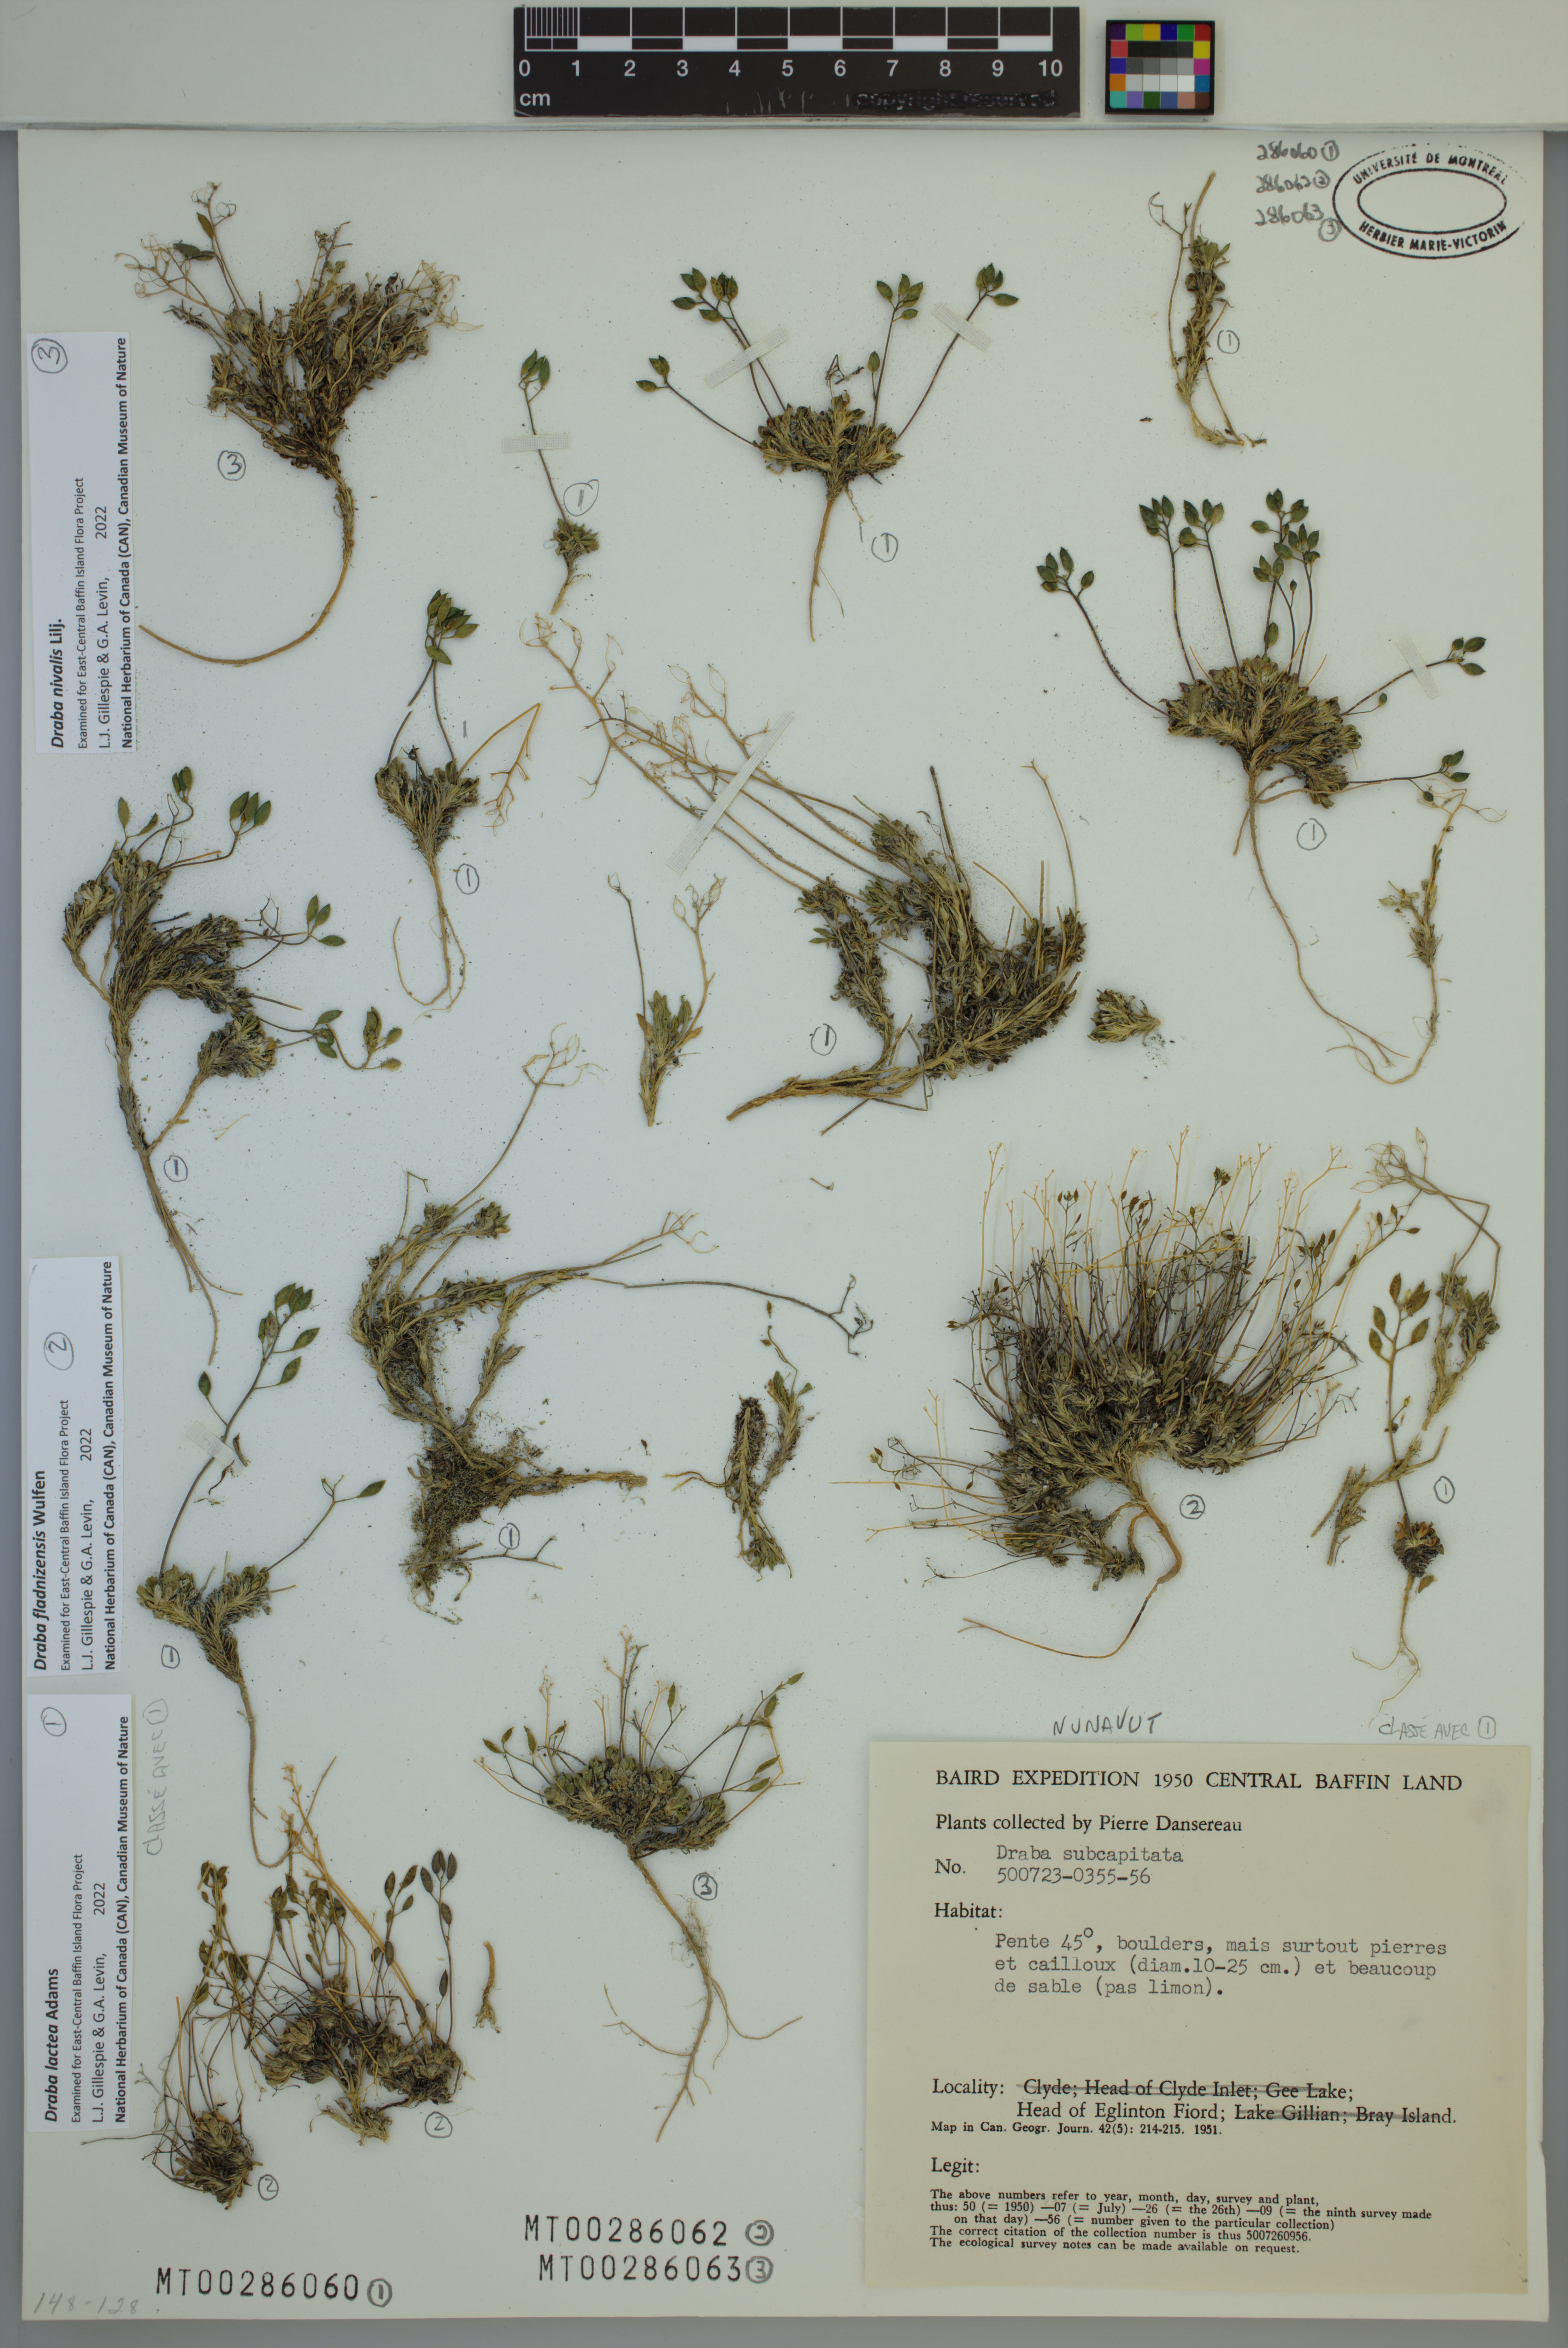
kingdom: Plantae
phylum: Tracheophyta
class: Magnoliopsida
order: Brassicales
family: Brassicaceae
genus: Draba
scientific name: Draba fladnizensis
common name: Austrian draba
